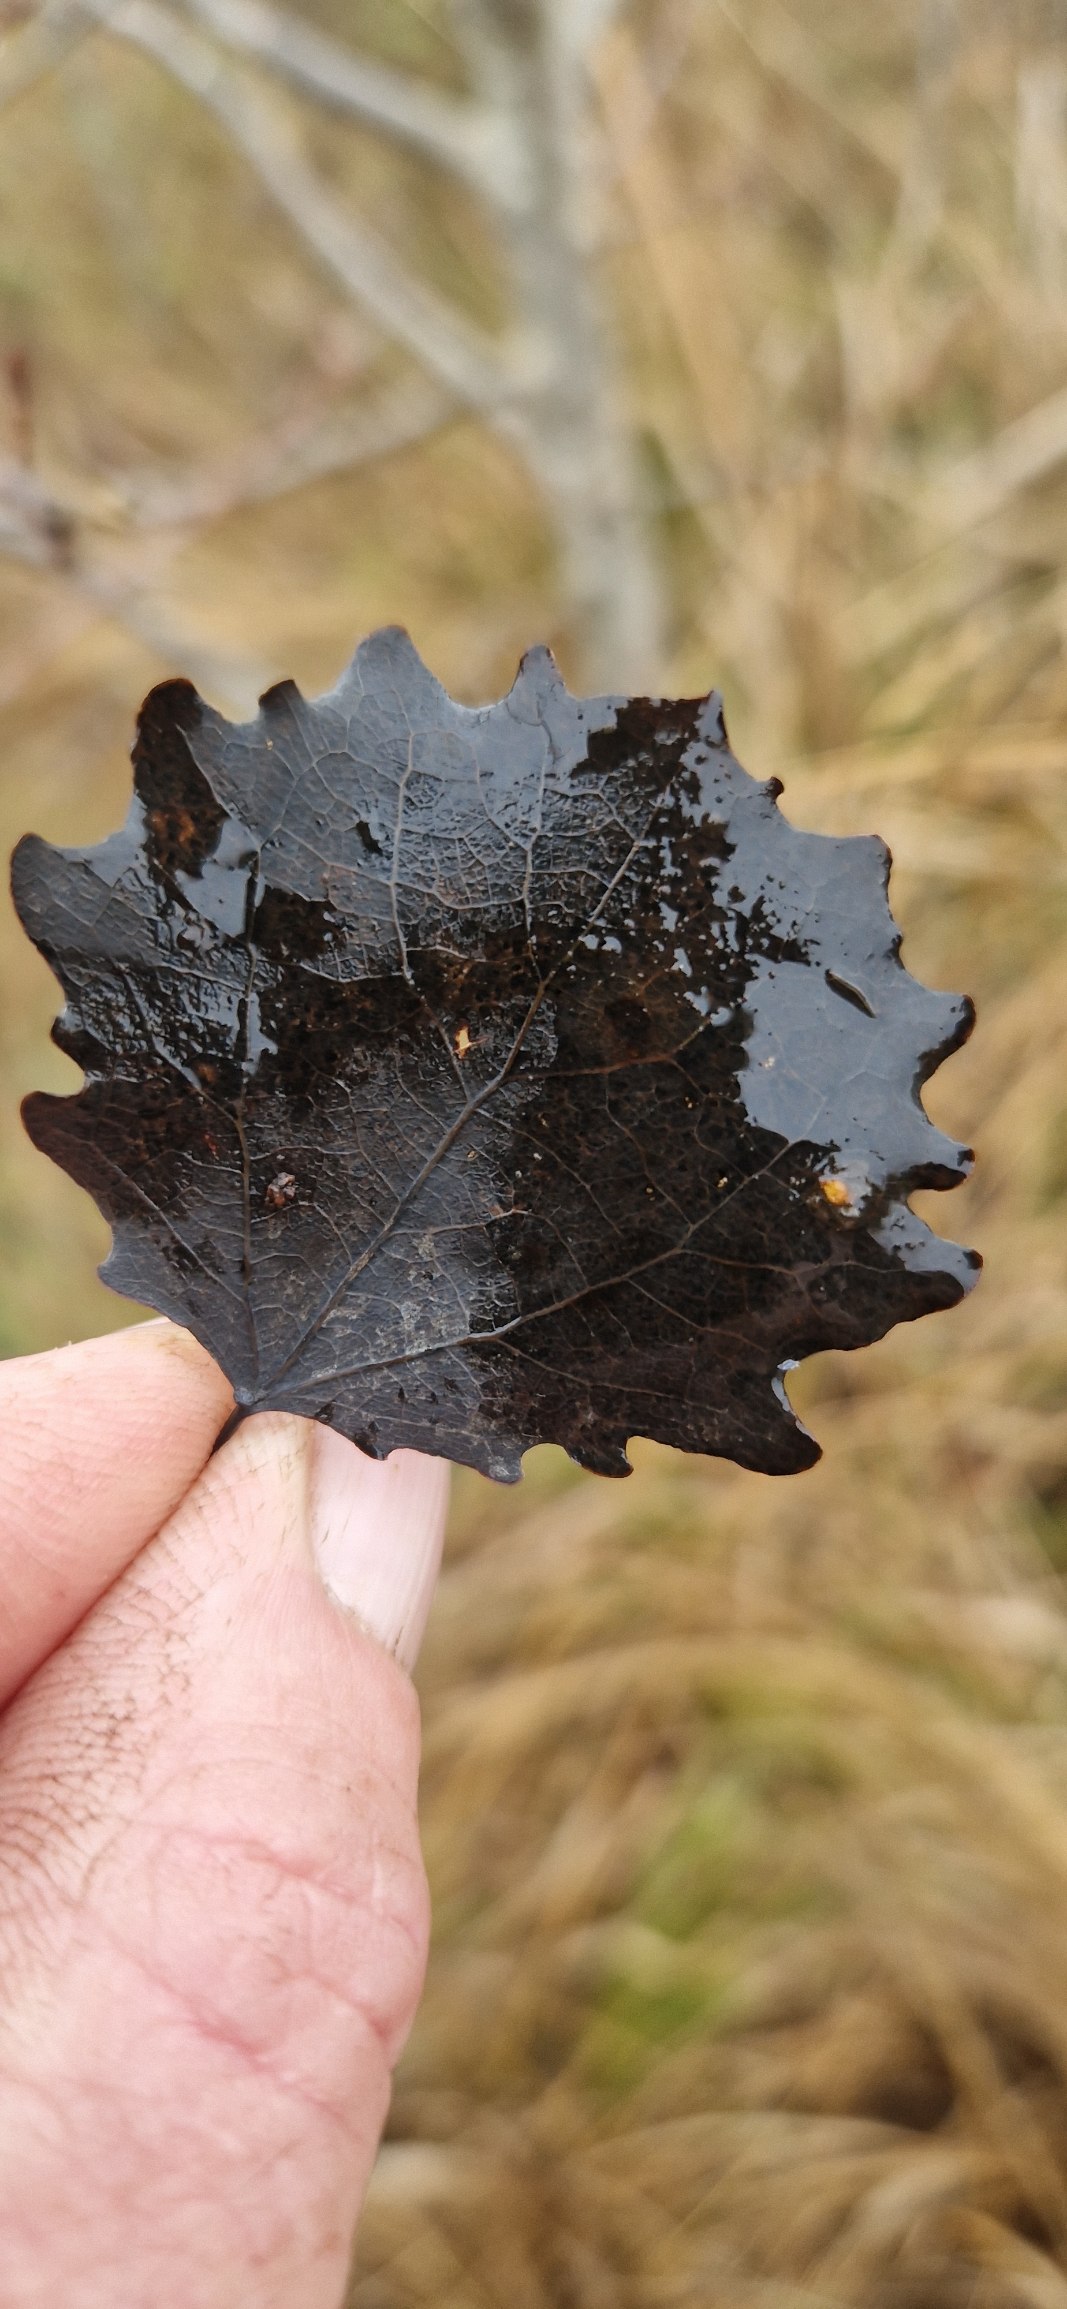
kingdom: Plantae
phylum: Tracheophyta
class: Magnoliopsida
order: Malpighiales
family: Salicaceae
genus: Populus
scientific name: Populus tremula
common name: Bævreasp
